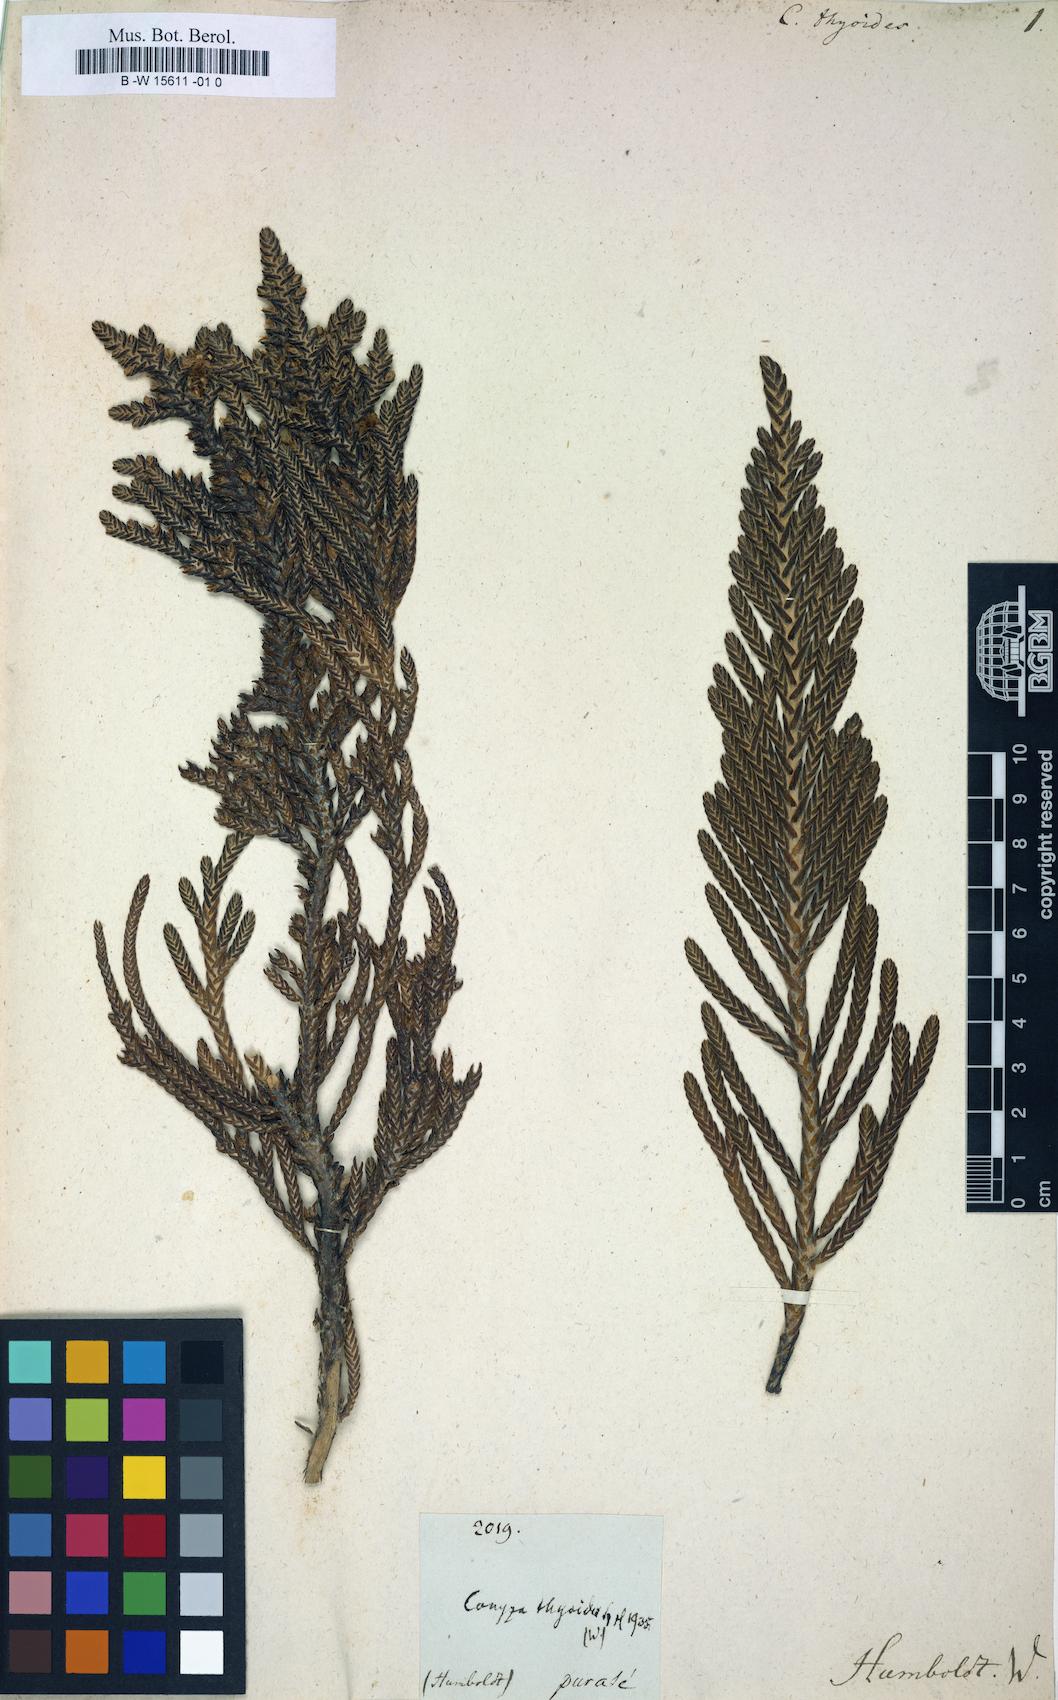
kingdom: Plantae
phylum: Tracheophyta
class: Magnoliopsida
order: Asterales
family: Asteraceae
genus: Conyza
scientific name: Conyza
